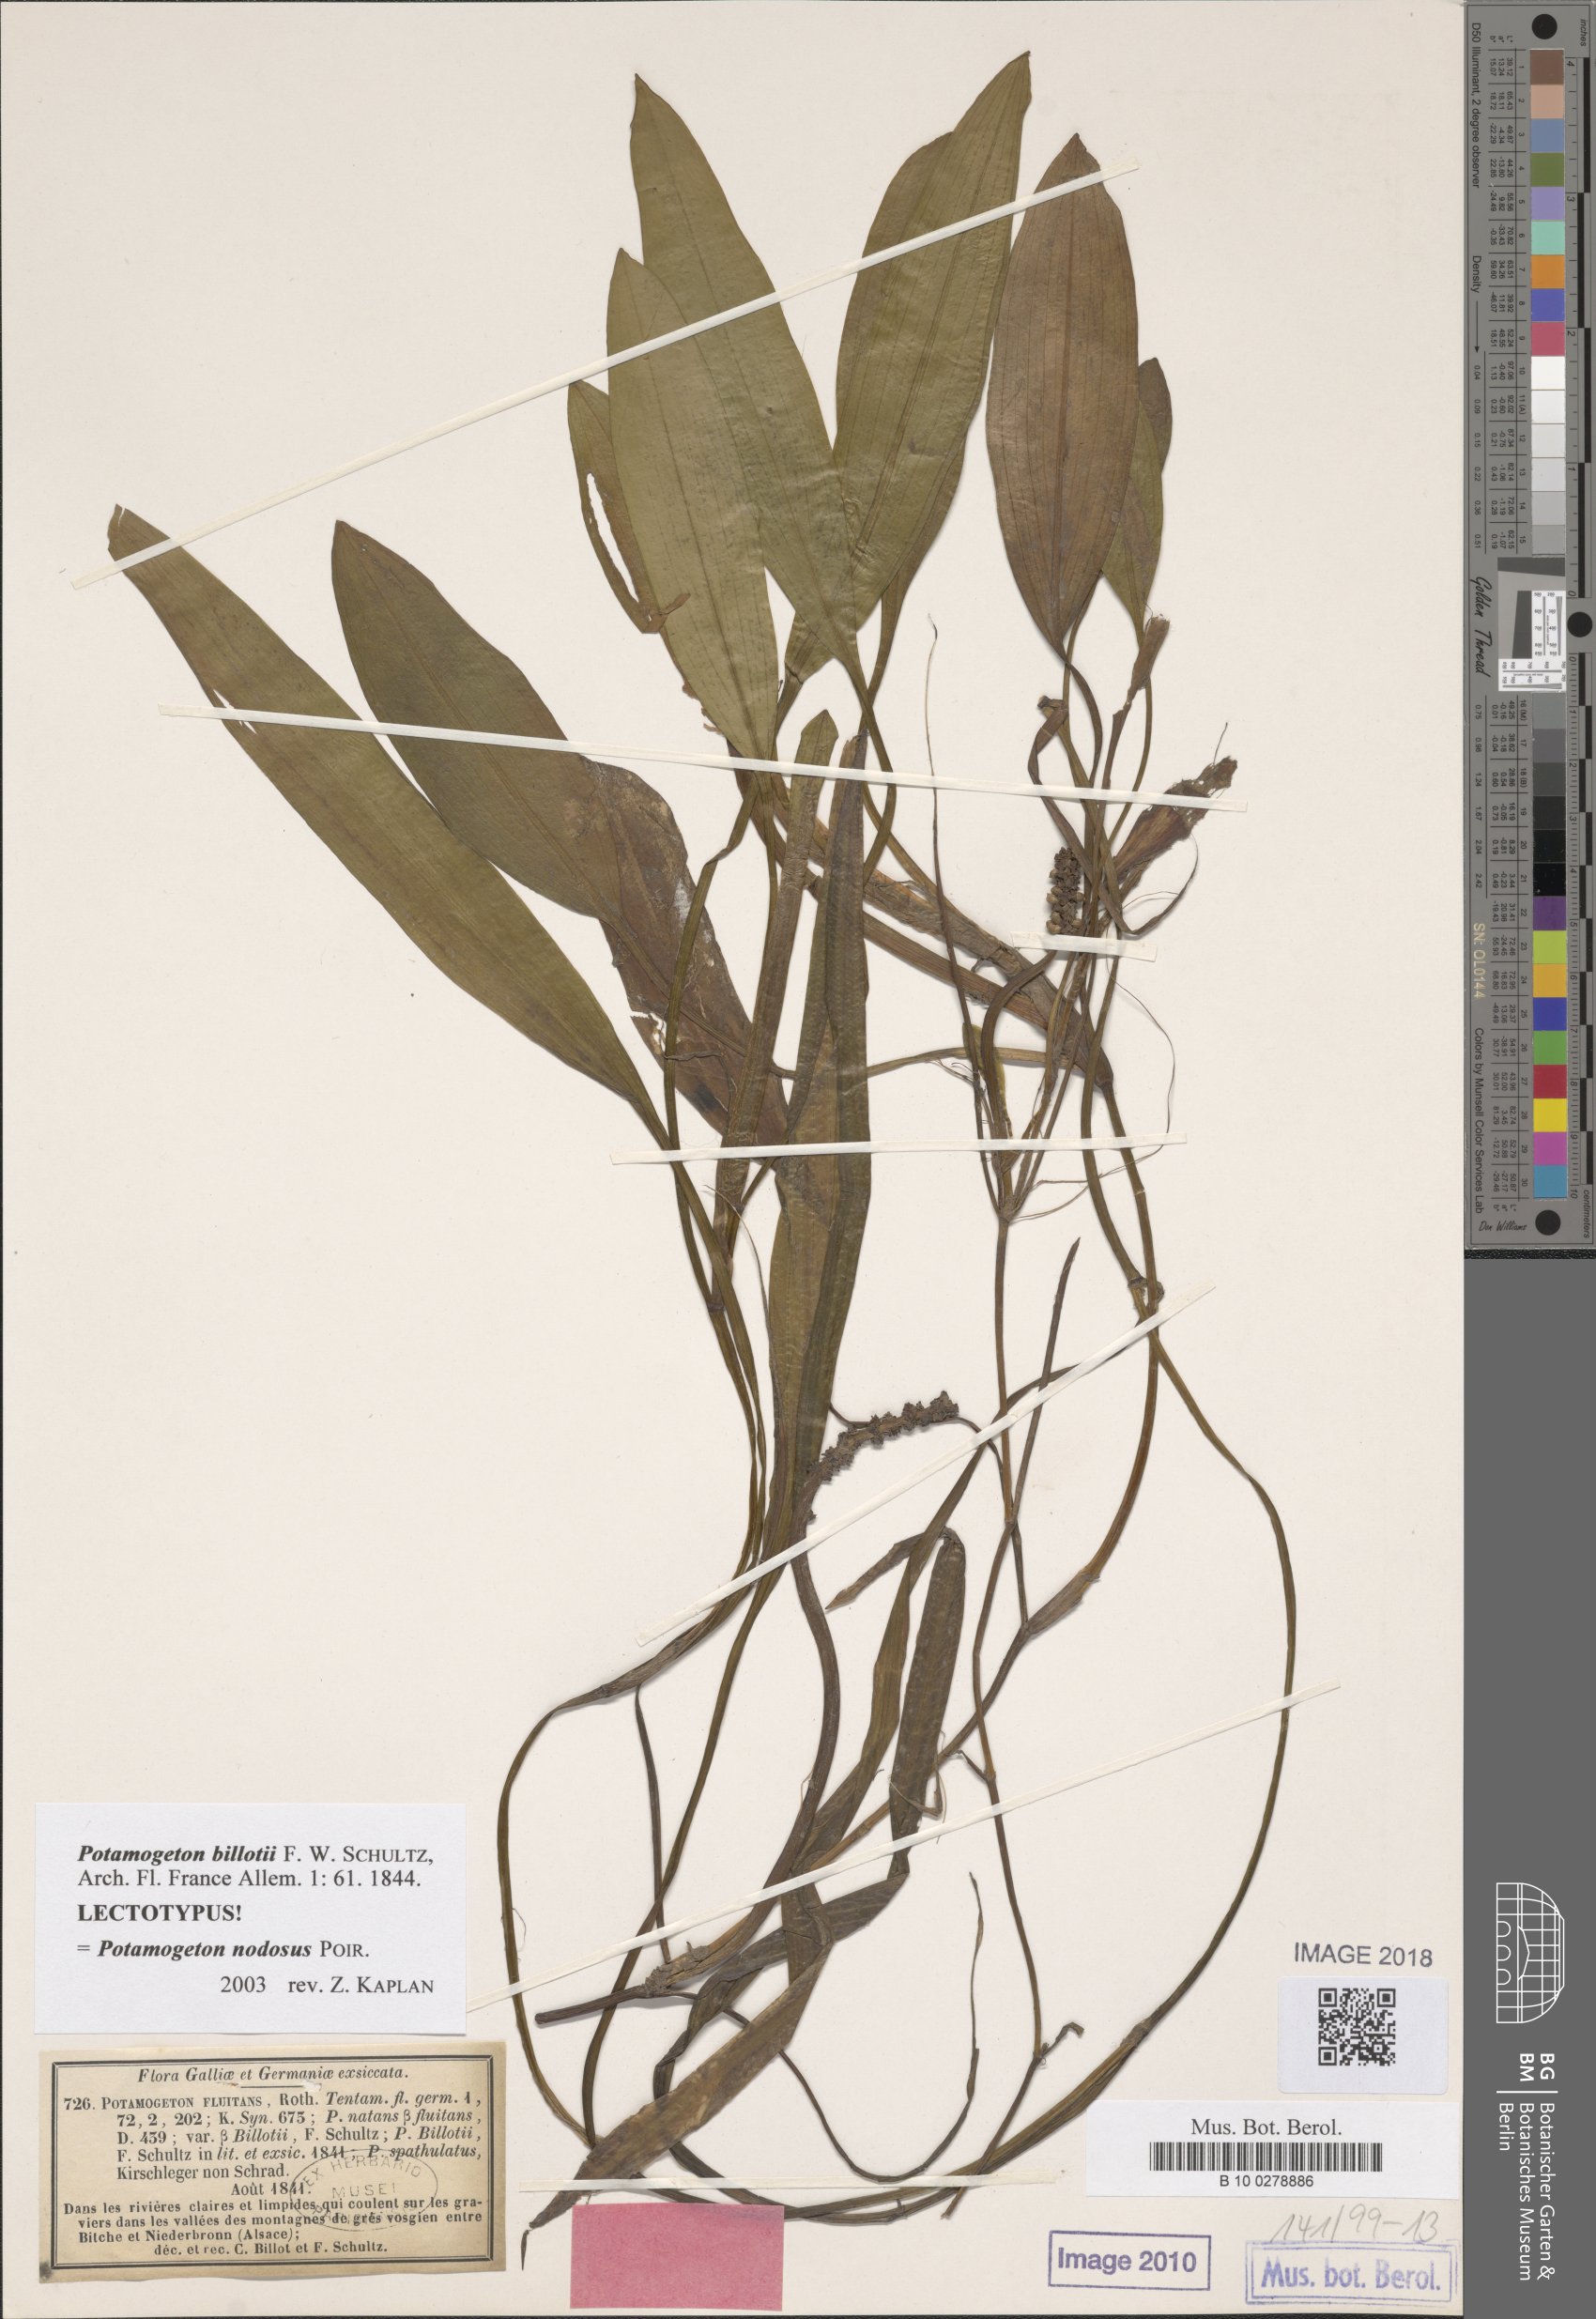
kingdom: Plantae
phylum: Tracheophyta
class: Liliopsida
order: Alismatales
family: Potamogetonaceae
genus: Potamogeton
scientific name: Potamogeton fluitans
